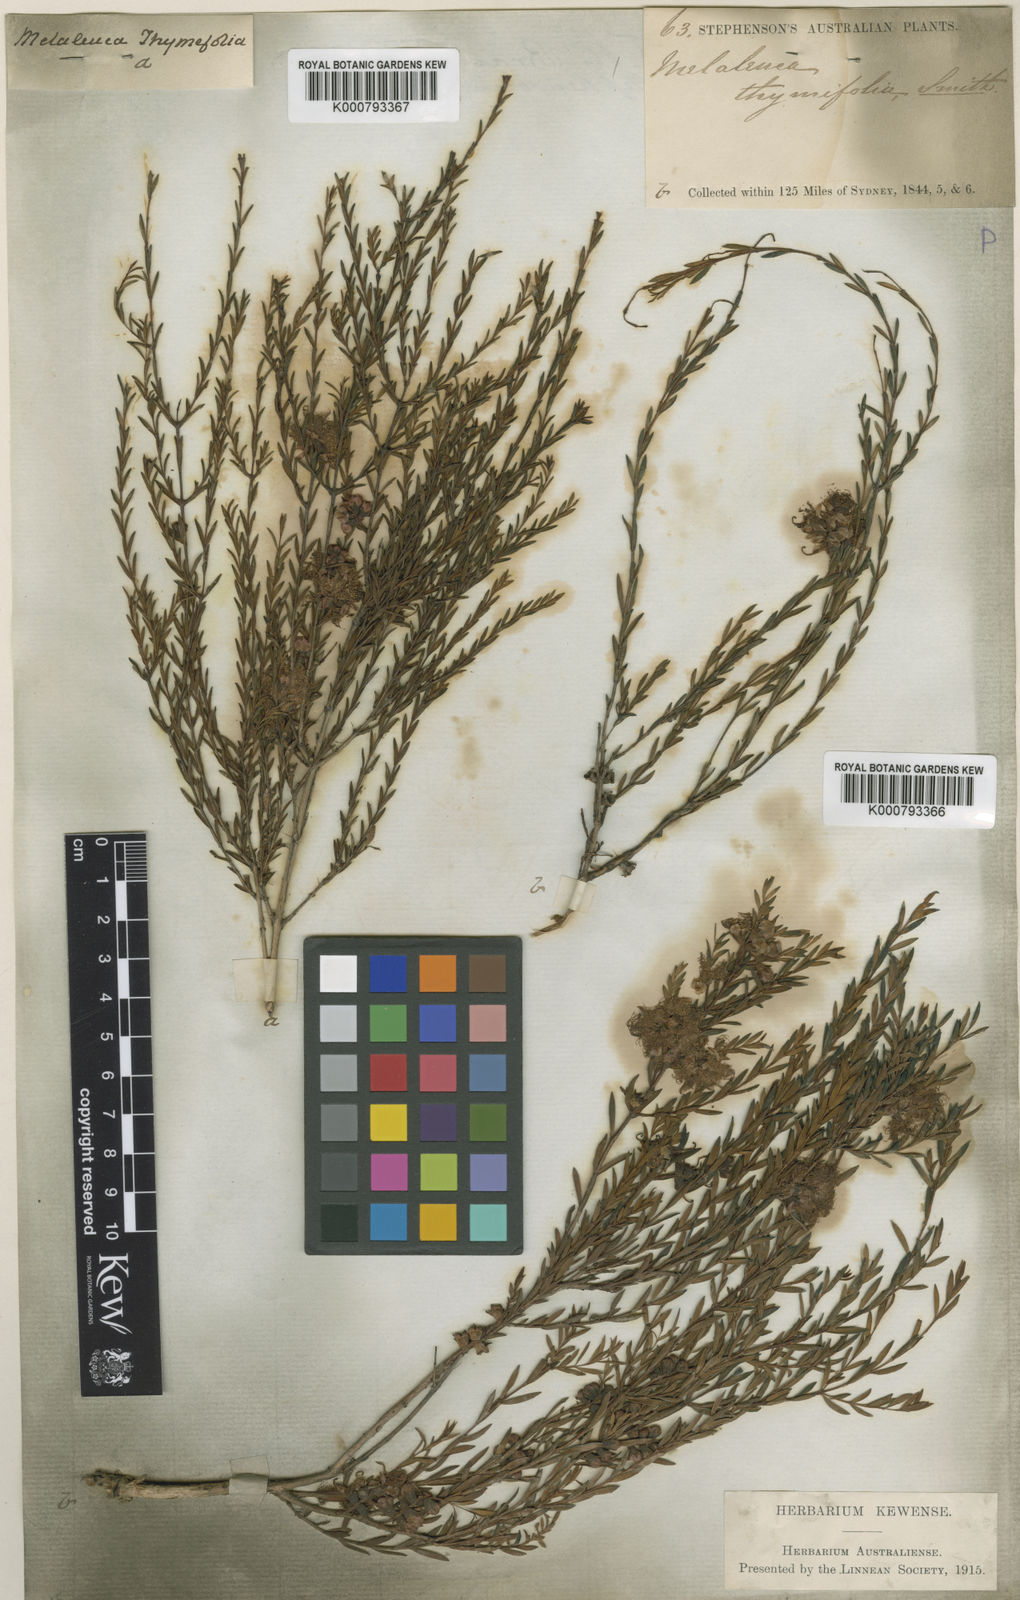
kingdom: Plantae
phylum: Tracheophyta
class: Magnoliopsida
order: Myrtales
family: Myrtaceae
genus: Melaleuca
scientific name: Melaleuca thymifolia
